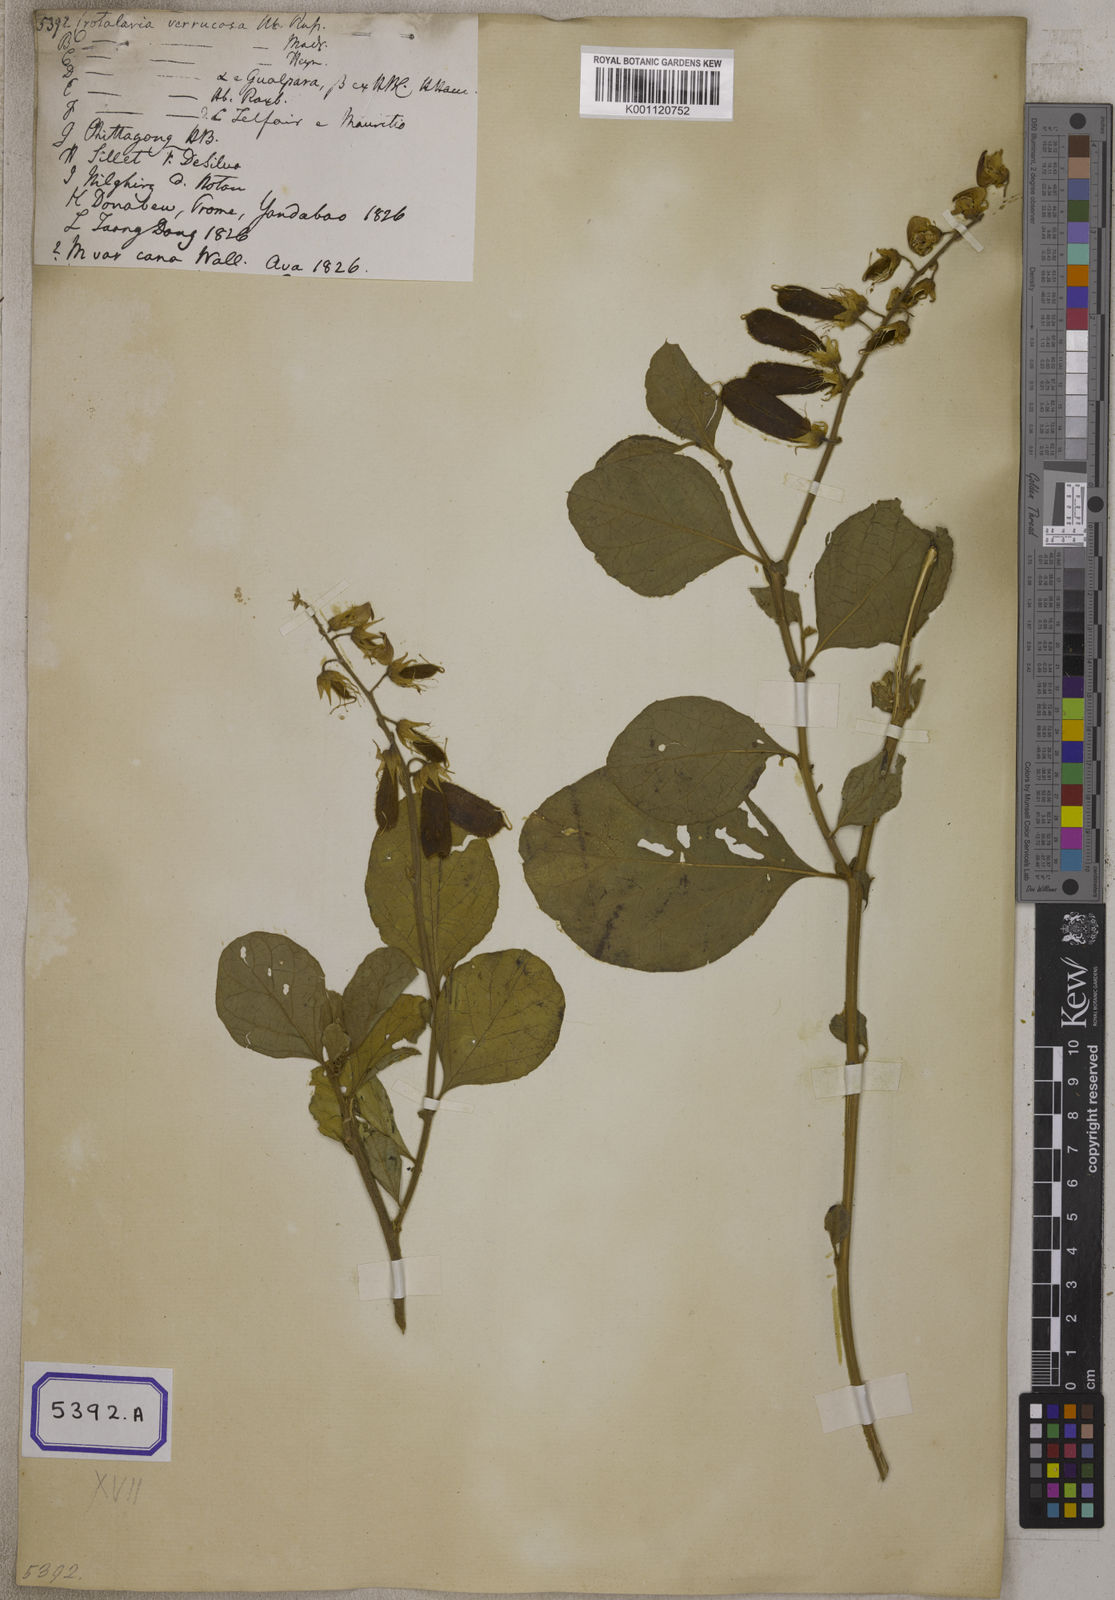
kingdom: Plantae
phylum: Tracheophyta
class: Magnoliopsida
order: Fabales
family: Fabaceae
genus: Crotalaria
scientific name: Crotalaria verrucosa
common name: Blue rattlesnake
